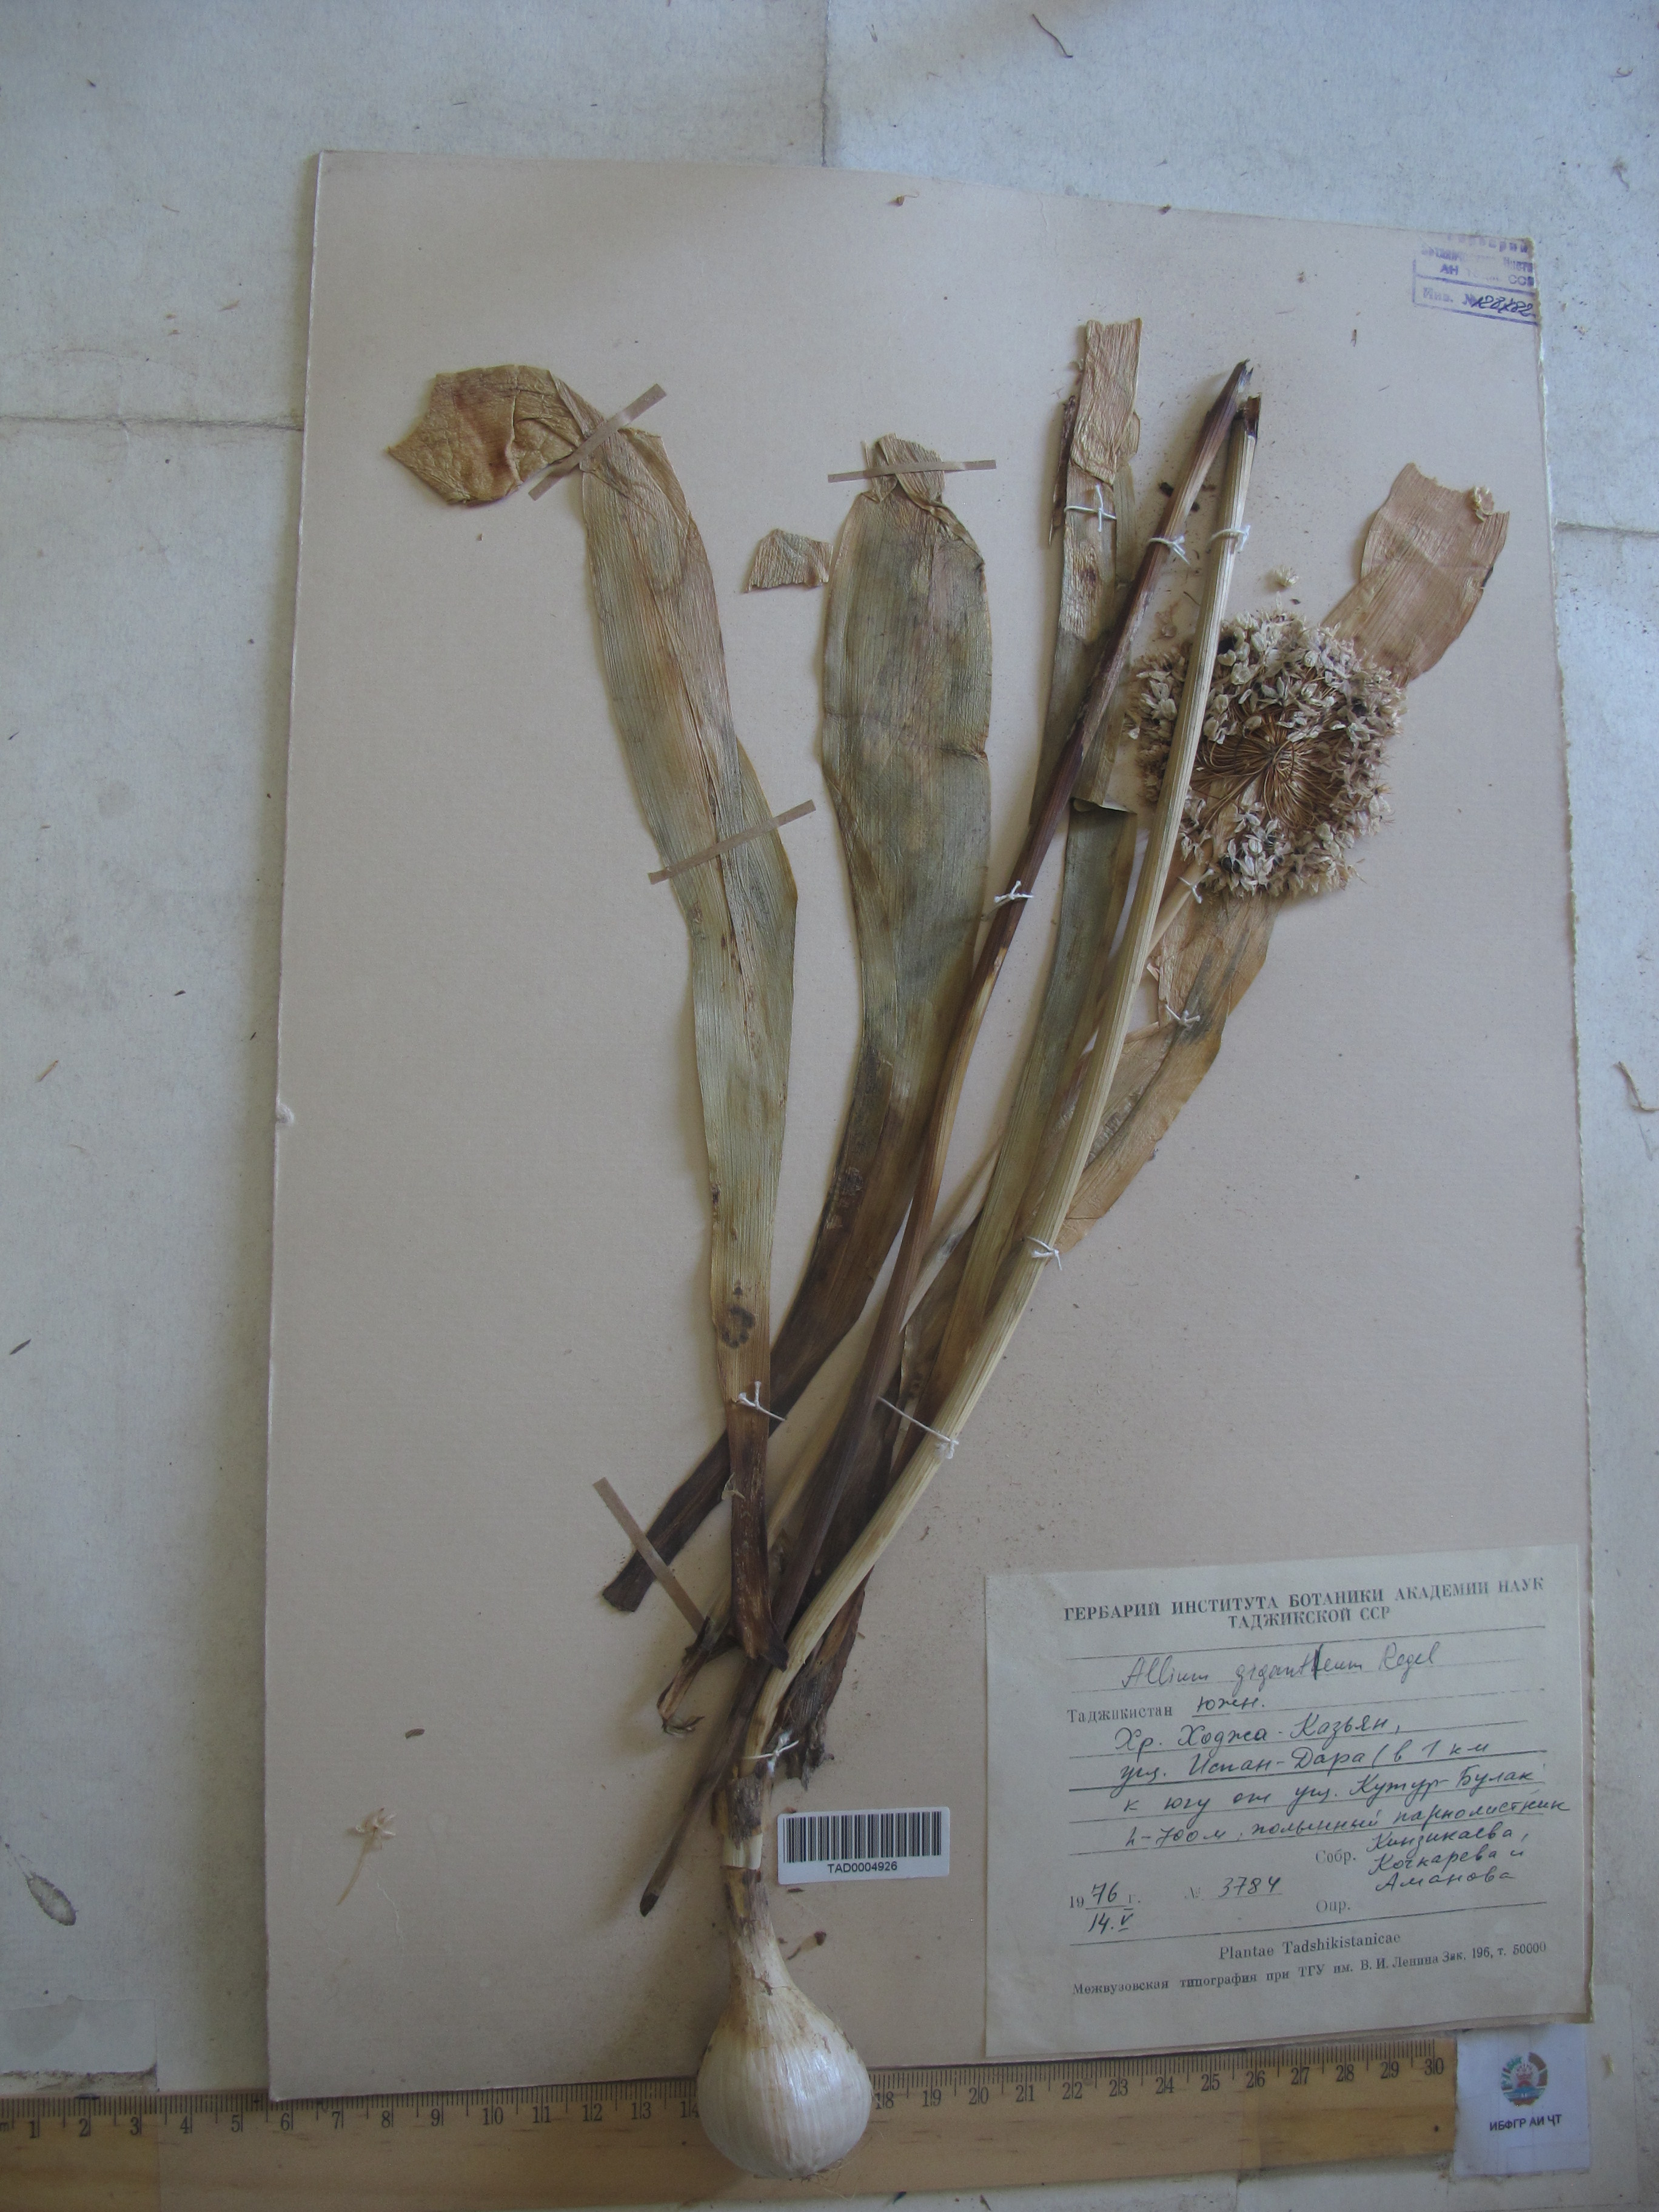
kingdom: Plantae
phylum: Tracheophyta
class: Liliopsida
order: Asparagales
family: Amaryllidaceae
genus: Allium
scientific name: Allium giganteum
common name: Giant onion
